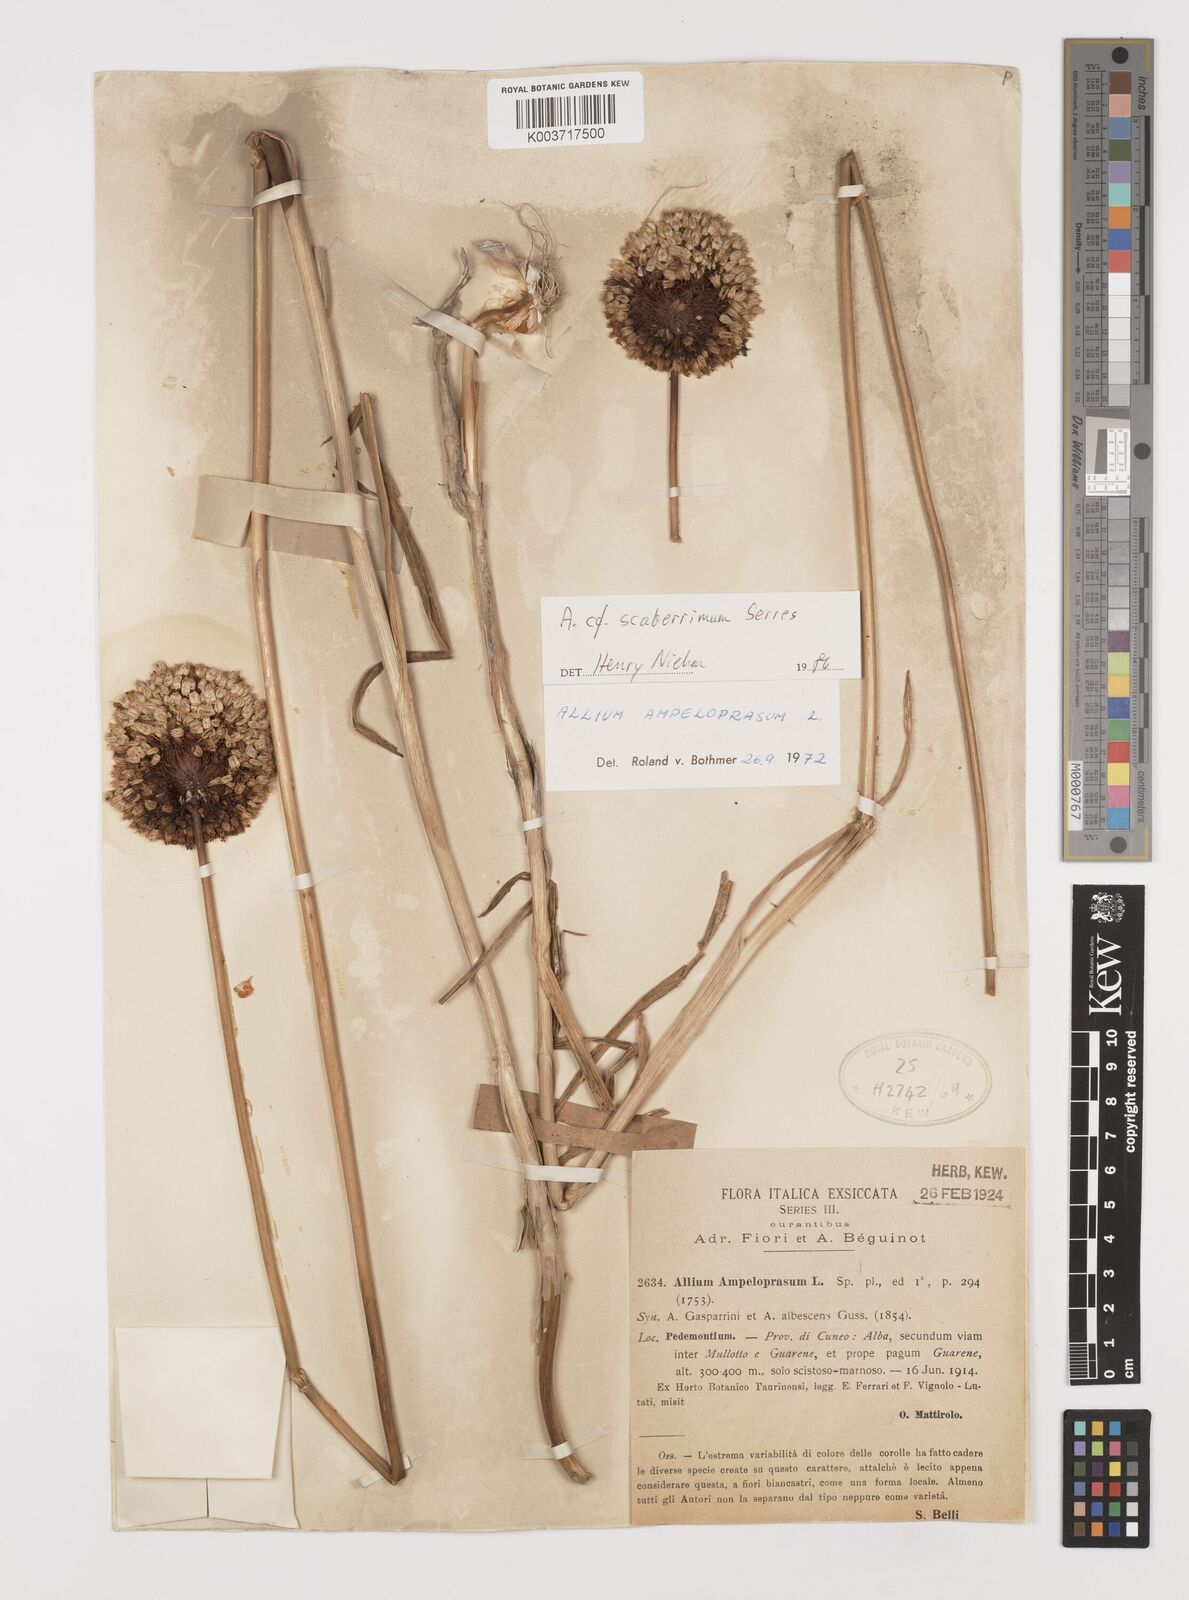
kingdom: Plantae
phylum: Tracheophyta
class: Liliopsida
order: Asparagales
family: Amaryllidaceae
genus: Allium
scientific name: Allium scaberrimum
